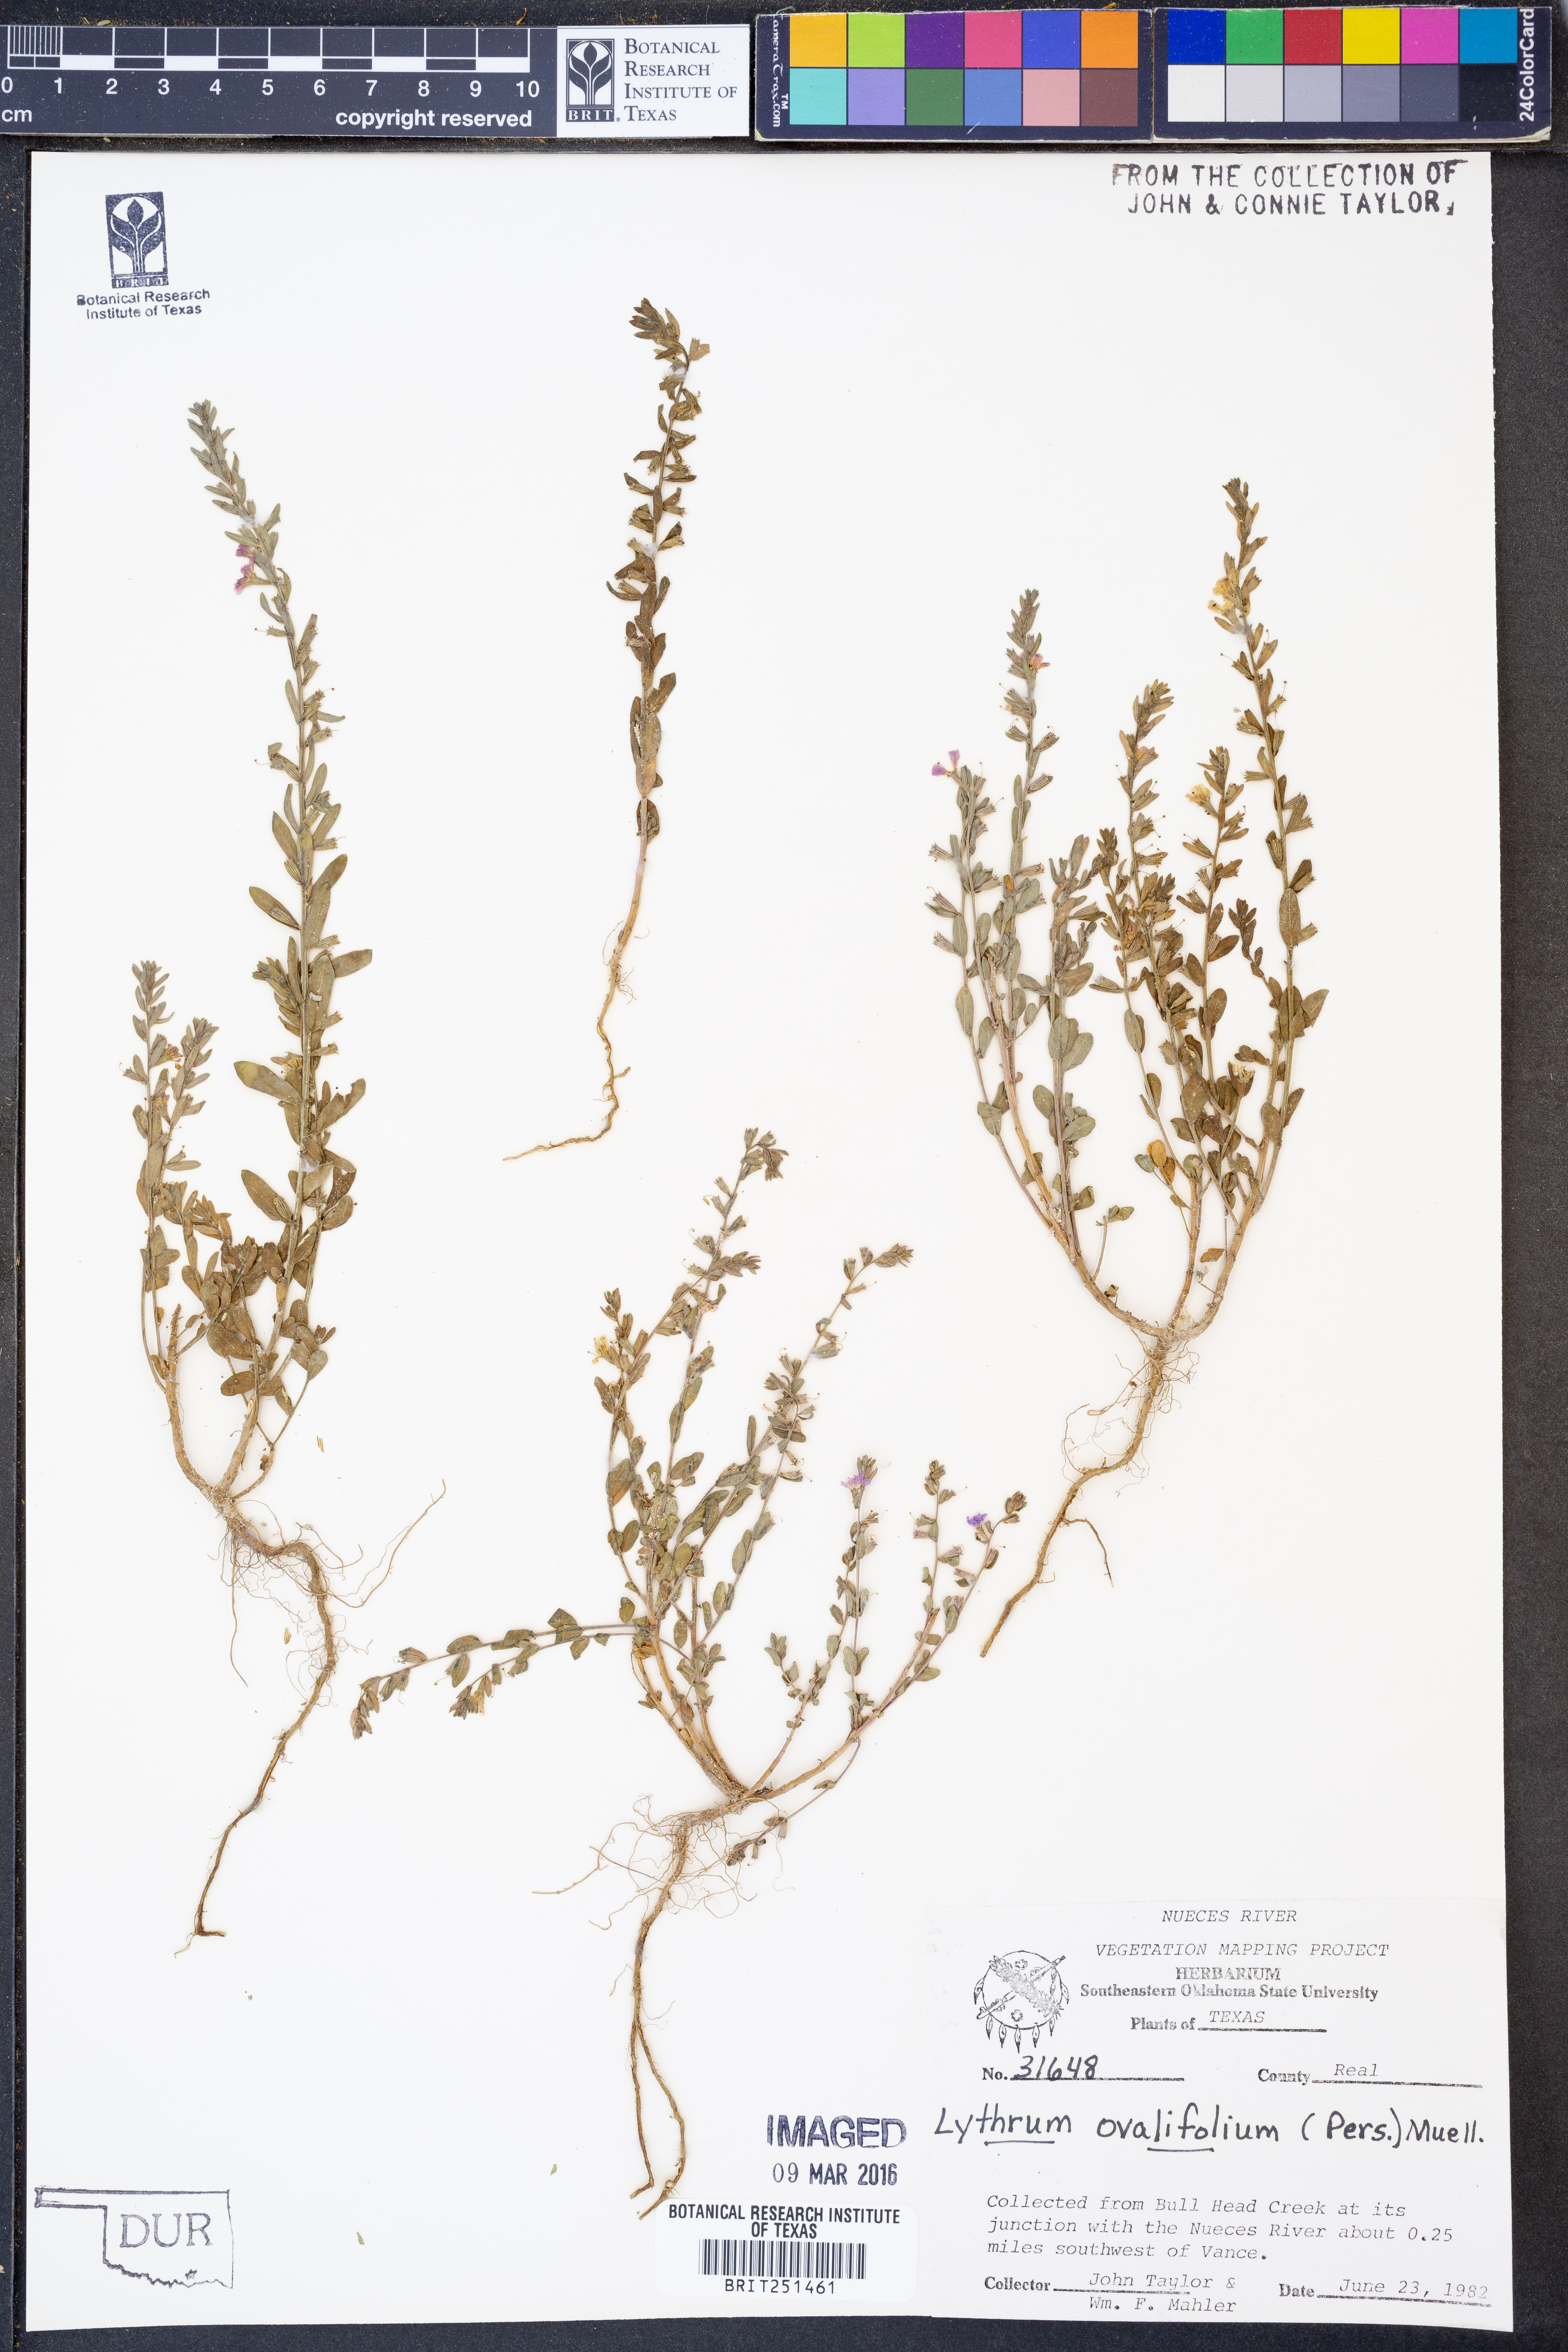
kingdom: Plantae
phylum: Tracheophyta
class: Magnoliopsida
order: Myrtales
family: Lythraceae
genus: Lythrum
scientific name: Lythrum ovalifolium
